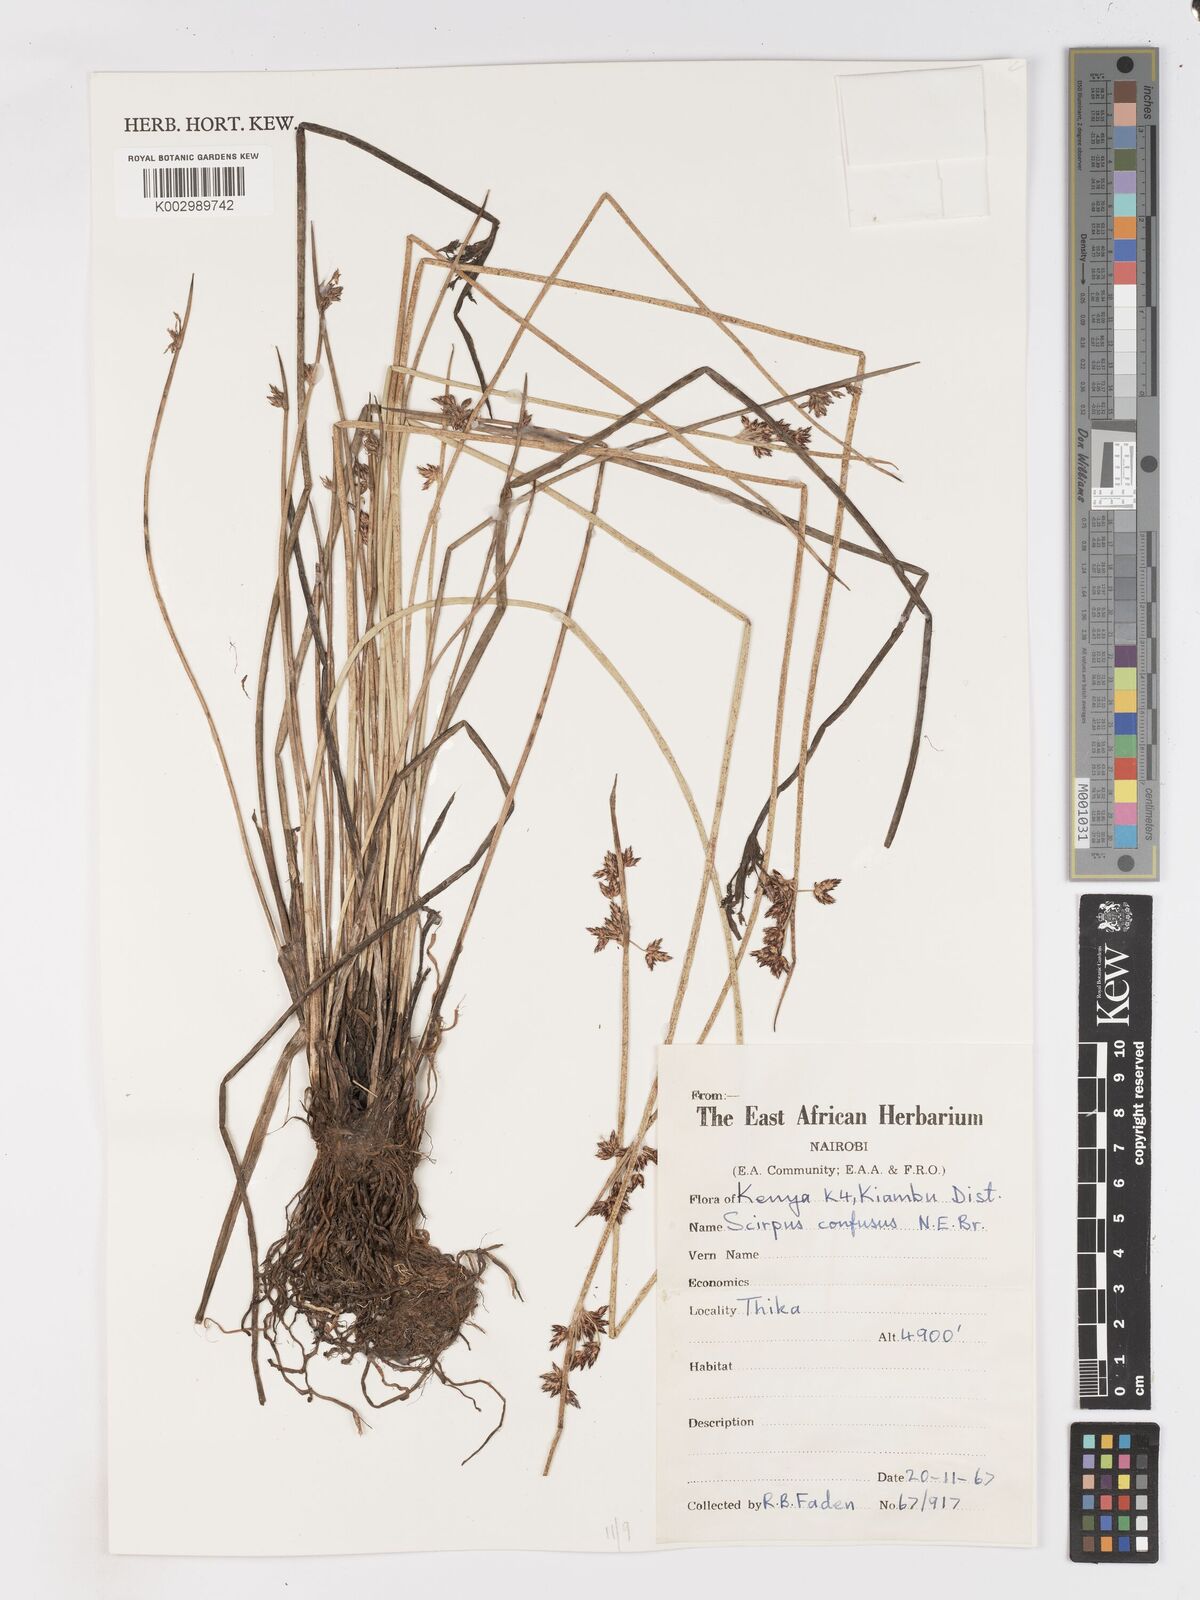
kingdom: Plantae
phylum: Tracheophyta
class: Liliopsida
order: Poales
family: Cyperaceae
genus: Schoenoplectiella
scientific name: Schoenoplectiella confusa
